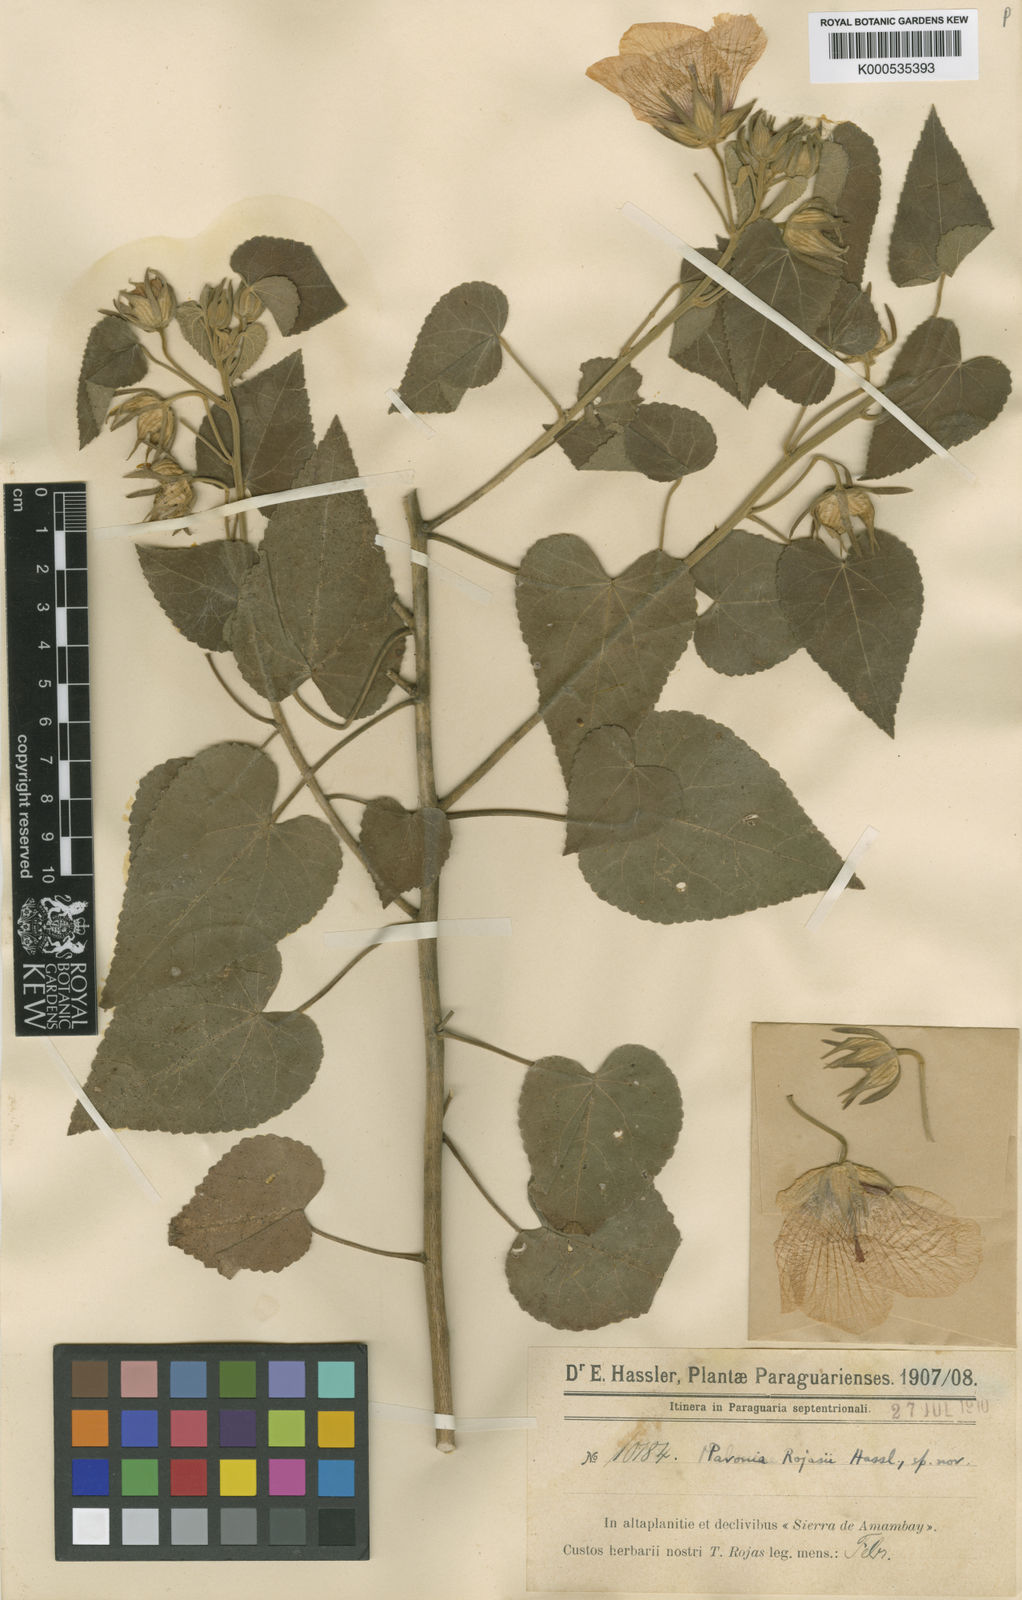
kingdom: Plantae
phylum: Tracheophyta
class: Magnoliopsida
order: Malvales
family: Malvaceae
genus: Pavonia
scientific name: Pavonia rojasii
